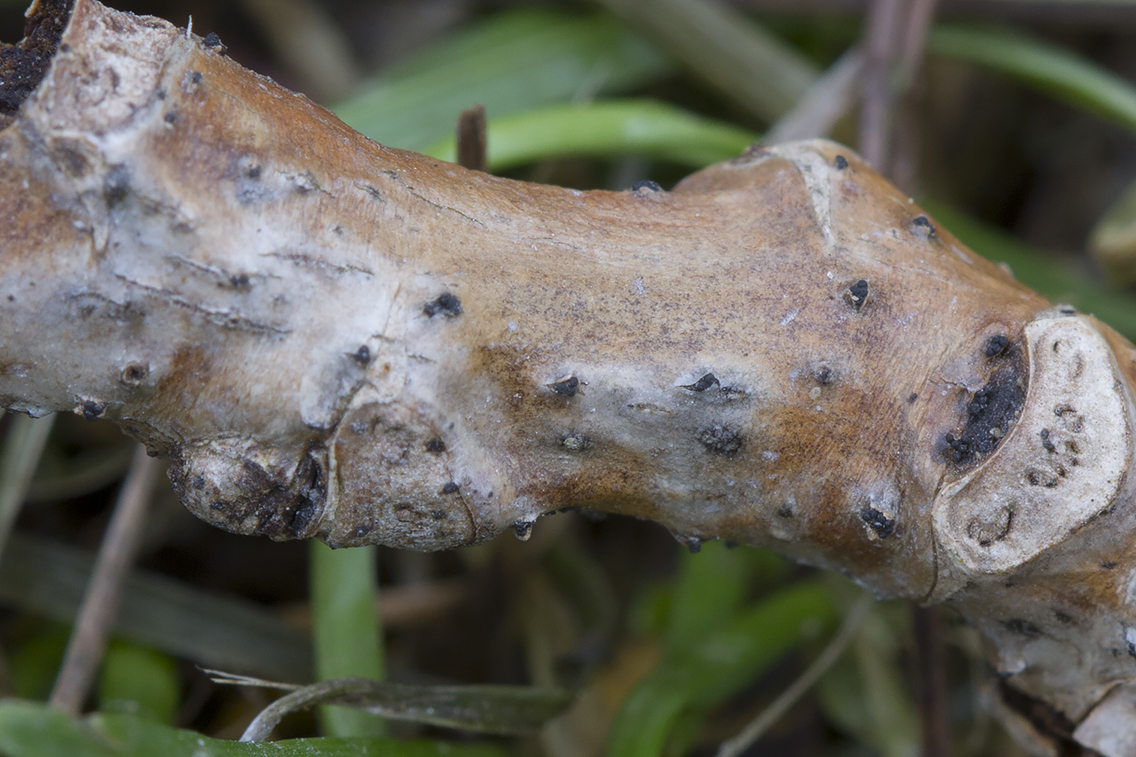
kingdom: Fungi
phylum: Ascomycota
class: Sordariomycetes
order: Diaporthales
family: Gnomoniaceae
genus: Plagiostoma
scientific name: Plagiostoma populinum
